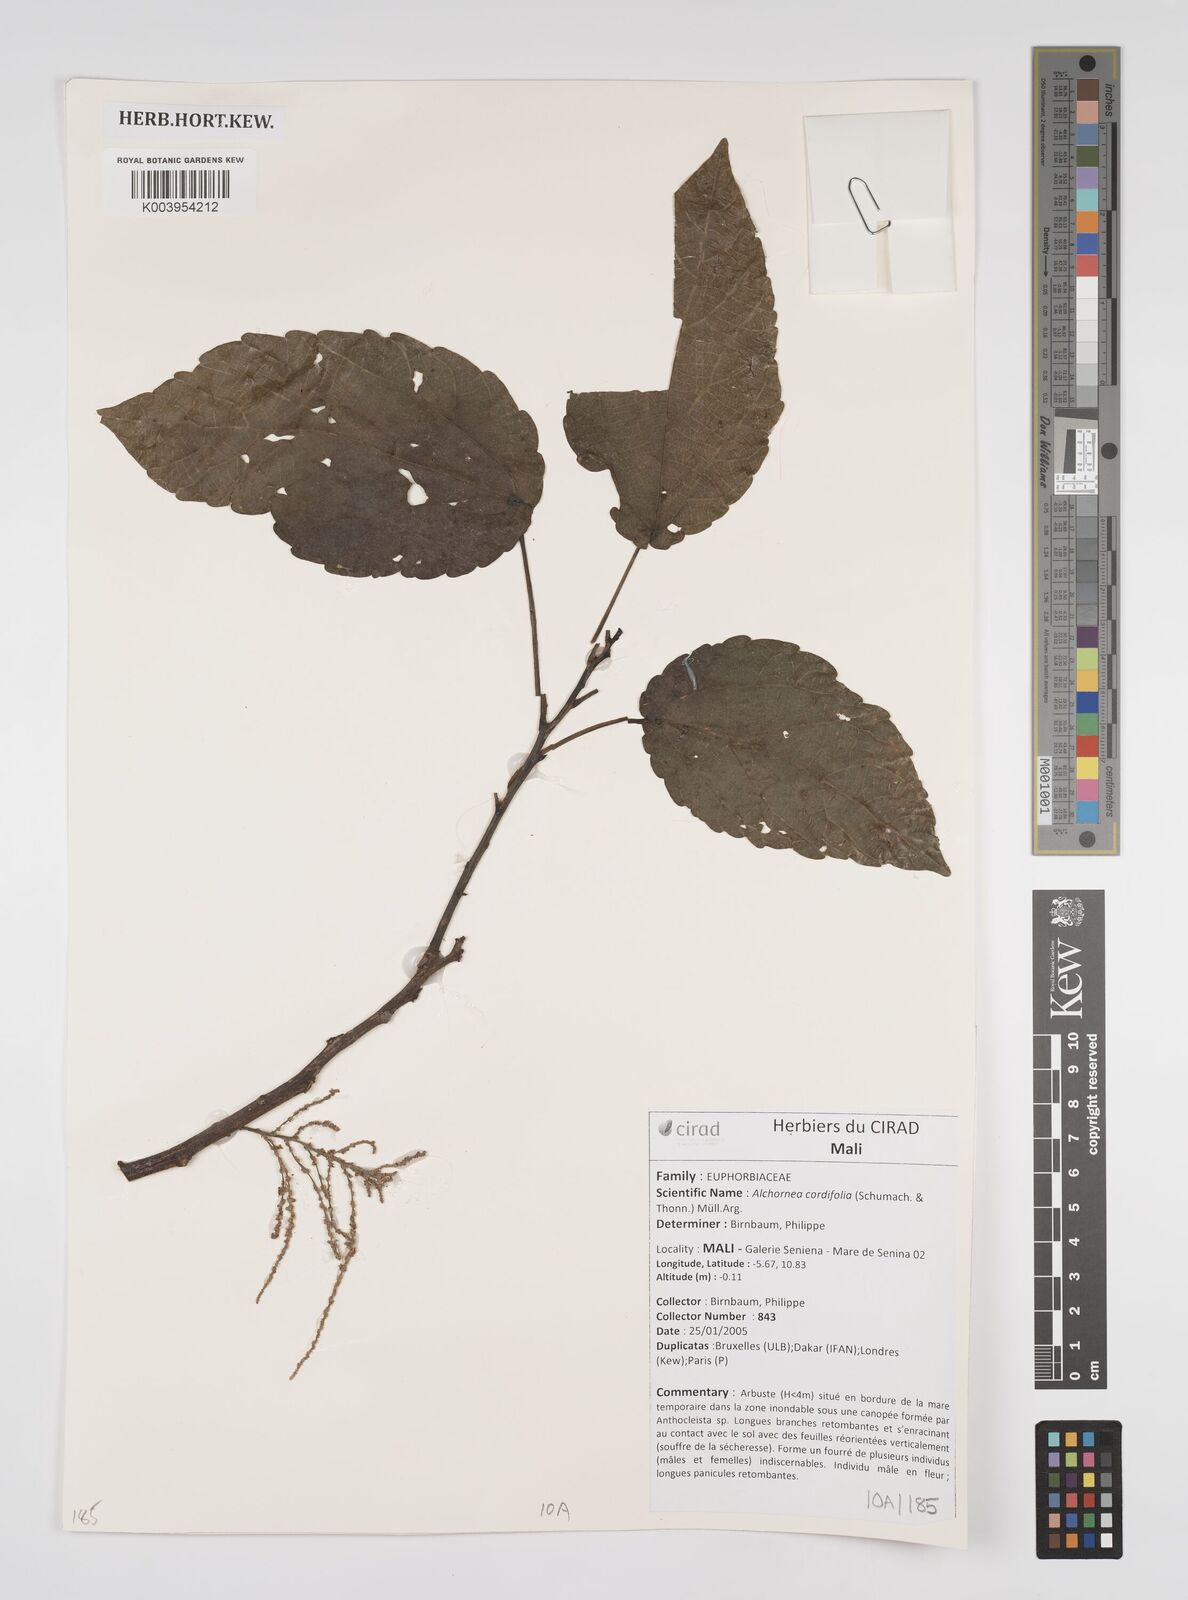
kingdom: Plantae
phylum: Tracheophyta
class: Magnoliopsida
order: Malpighiales
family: Euphorbiaceae
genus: Alchornea
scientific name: Alchornea cordifolia
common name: Christmasbush
